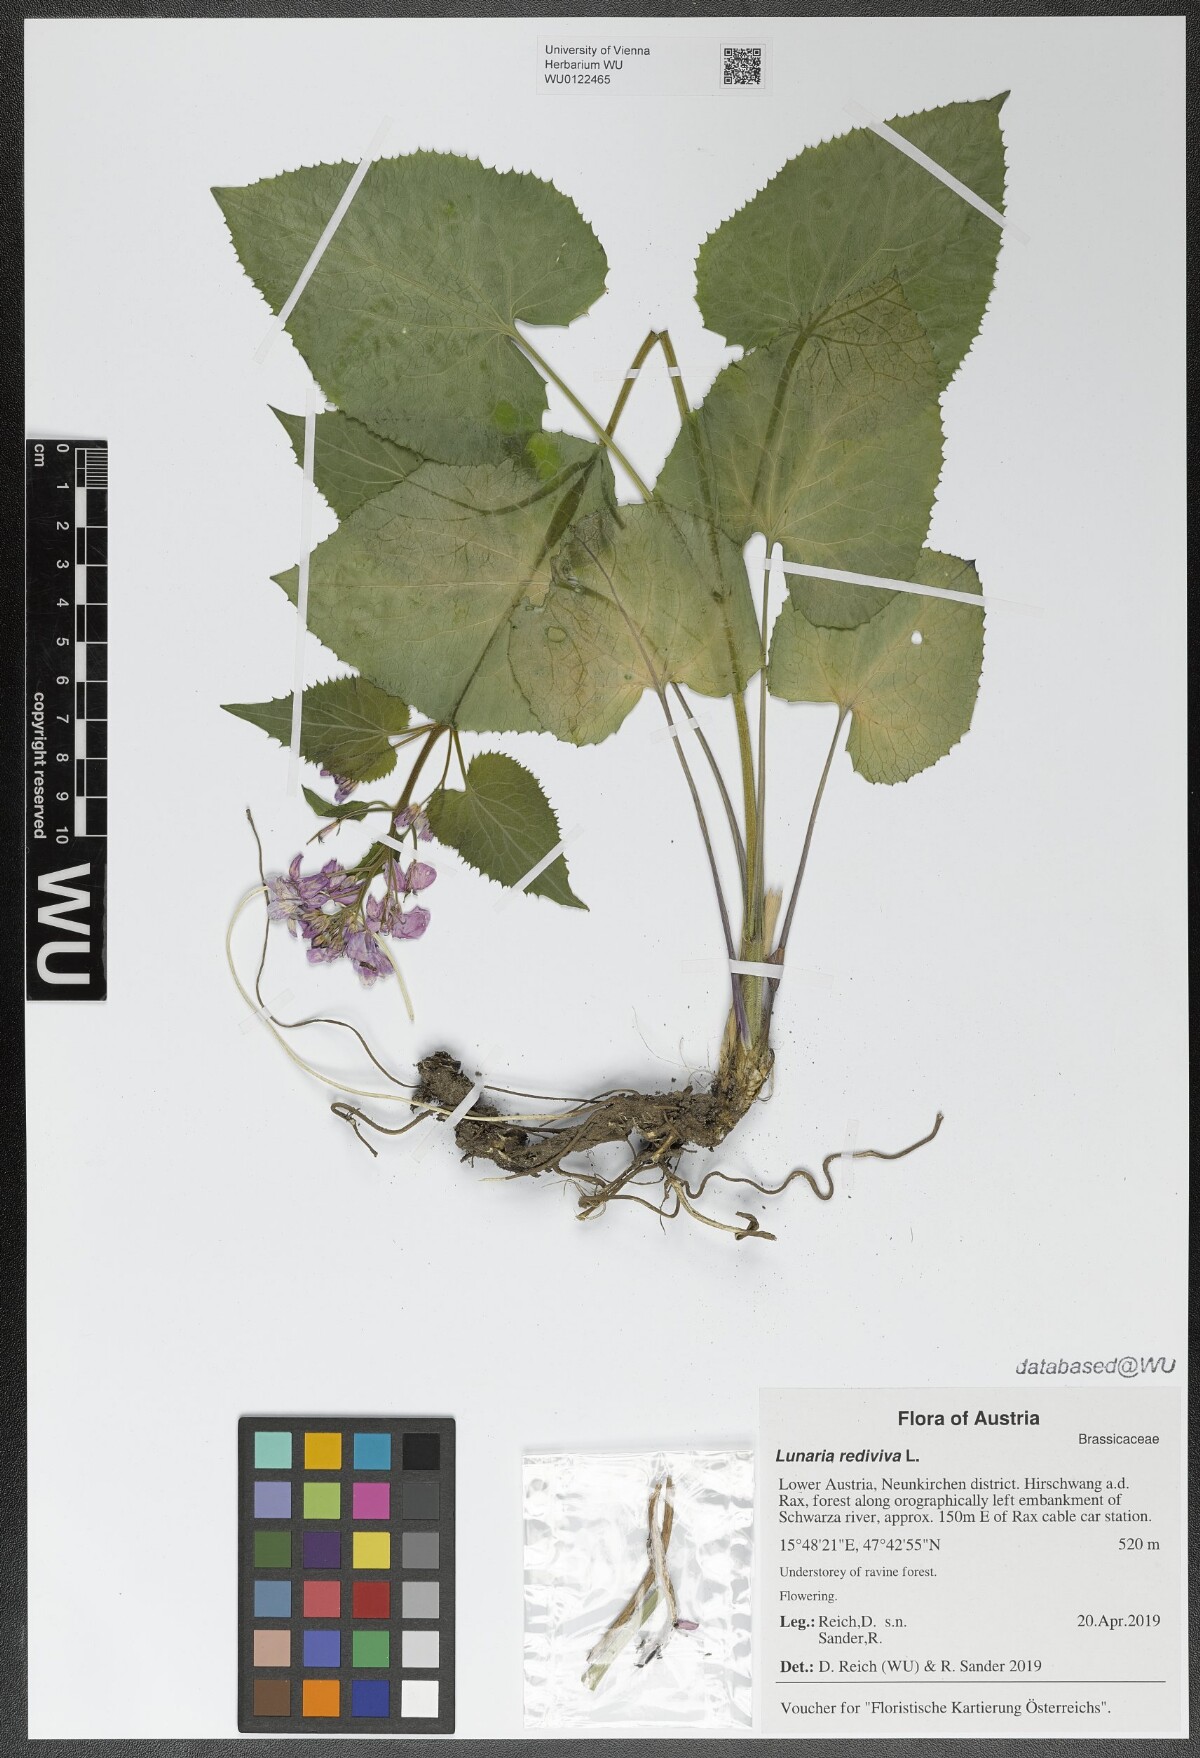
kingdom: Plantae
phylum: Tracheophyta
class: Magnoliopsida
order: Brassicales
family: Brassicaceae
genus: Lunaria
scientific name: Lunaria rediviva
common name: Perennial honesty
